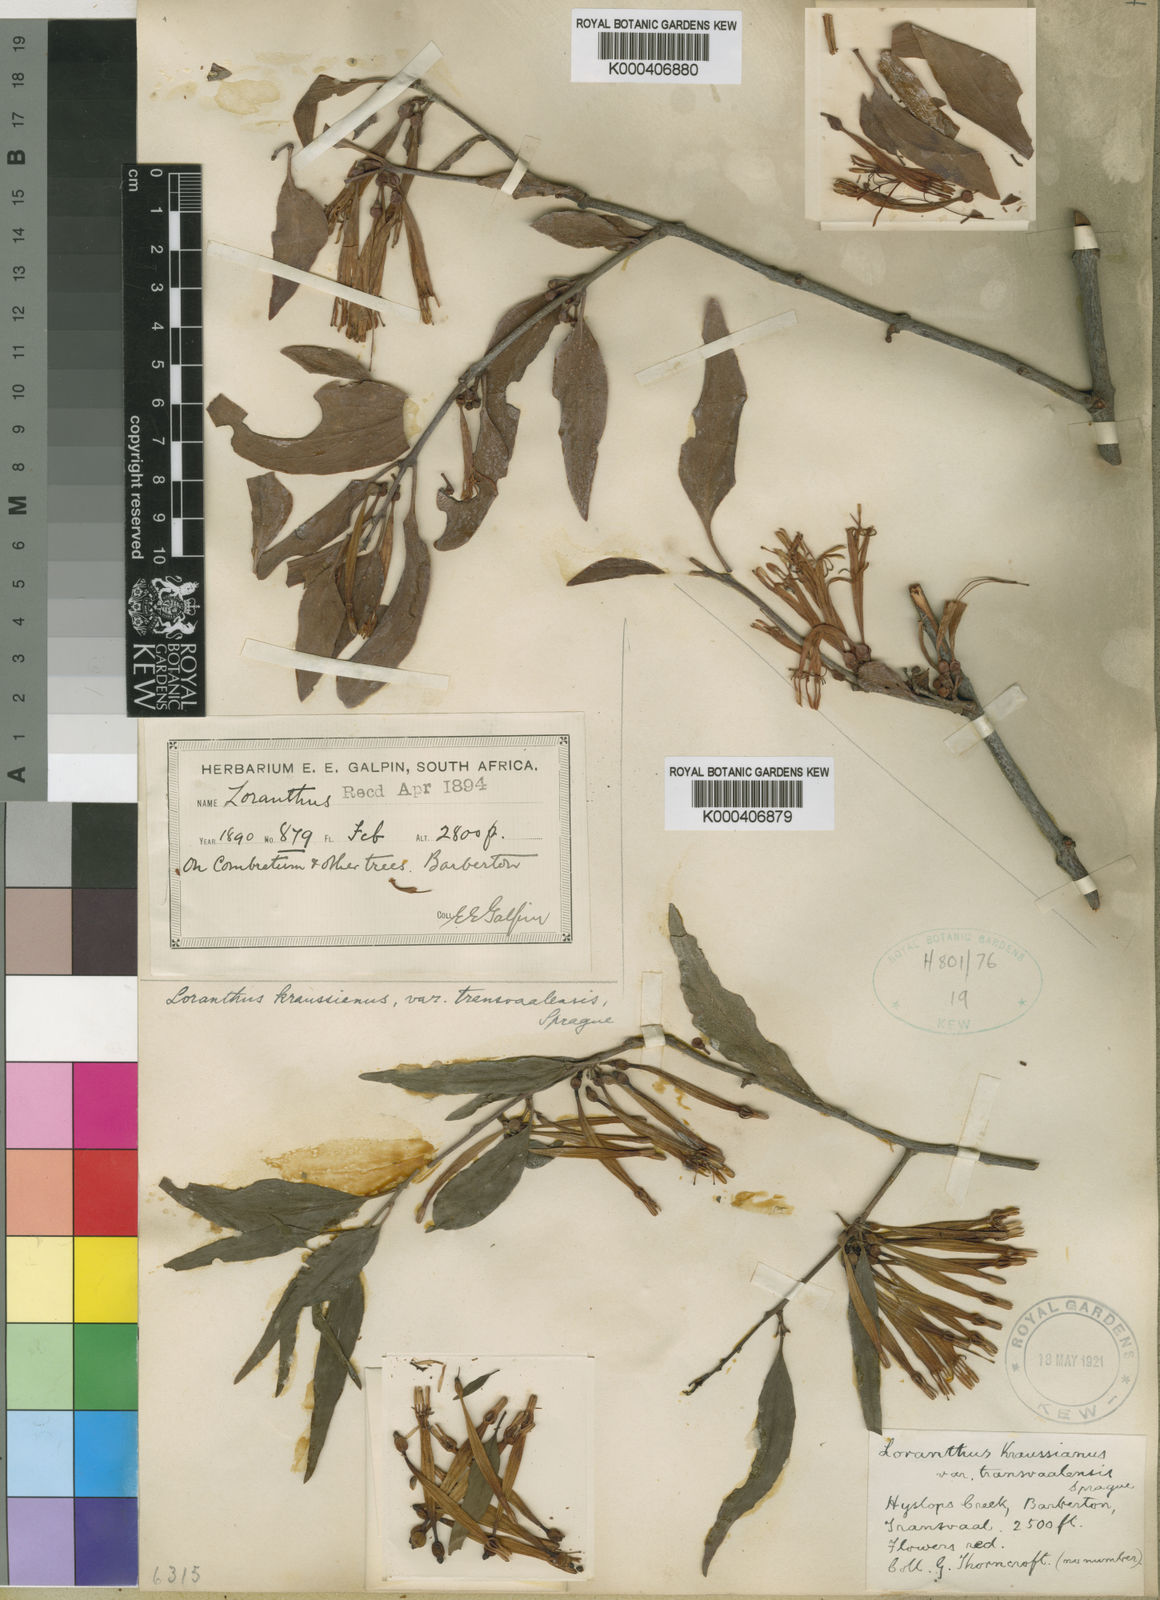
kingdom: Plantae
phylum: Tracheophyta
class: Magnoliopsida
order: Santalales
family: Loranthaceae
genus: Agelanthus
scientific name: Agelanthus transvaalensis
